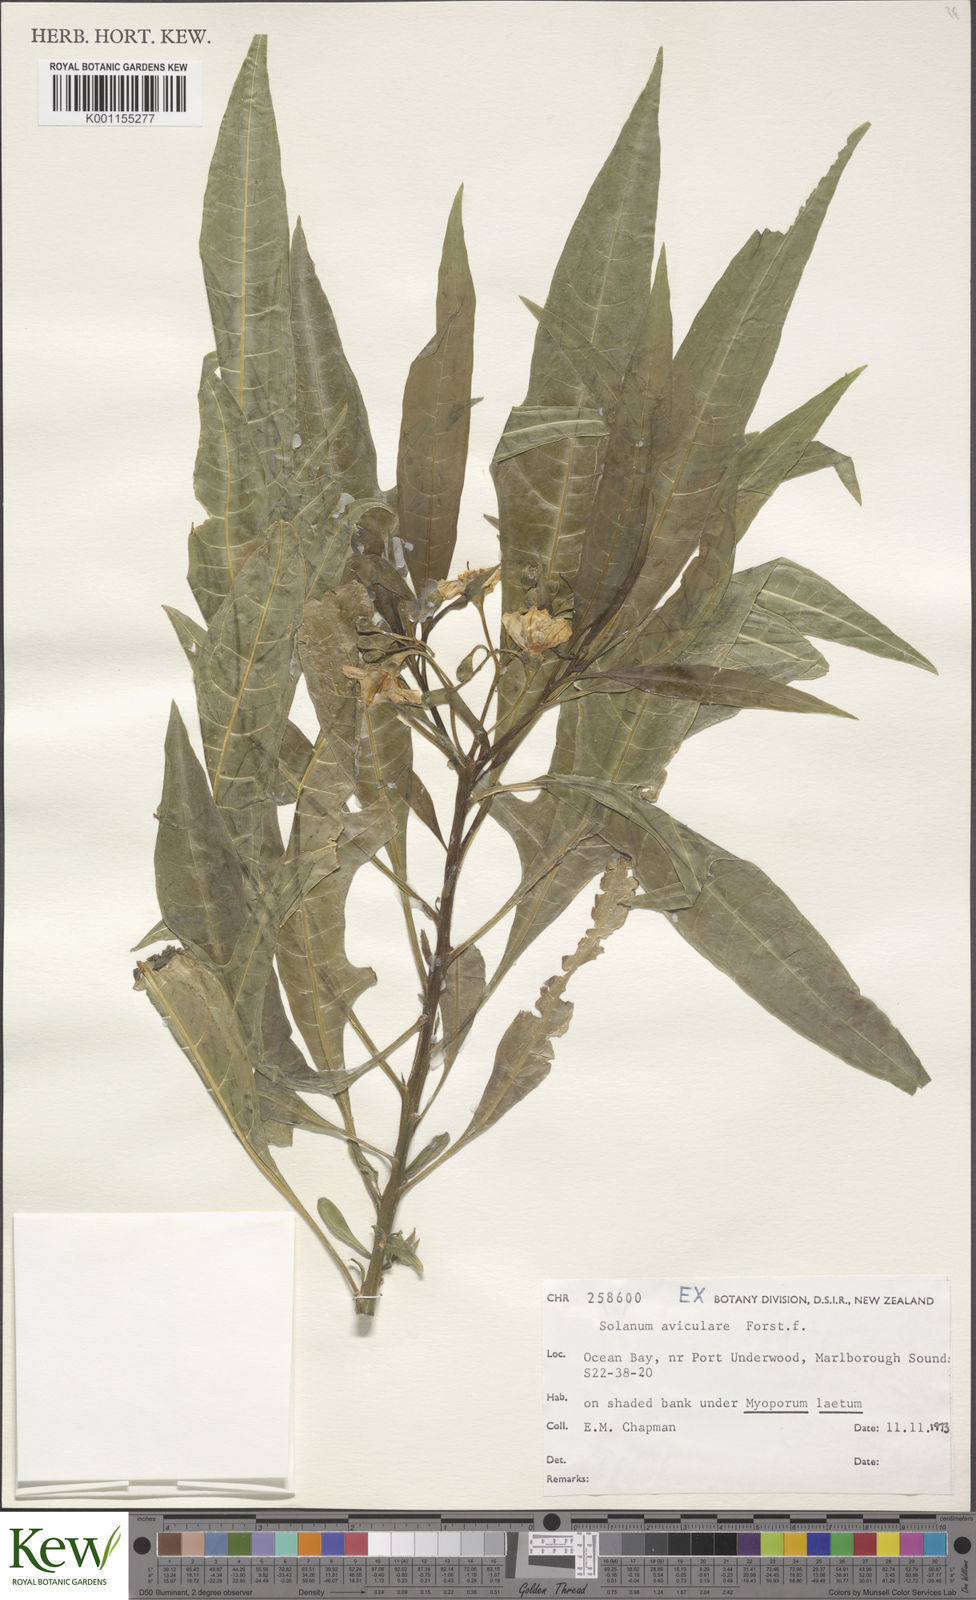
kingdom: Plantae
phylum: Tracheophyta
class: Magnoliopsida
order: Solanales
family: Solanaceae
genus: Solanum
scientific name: Solanum aviculare
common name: New zealand nightshade
